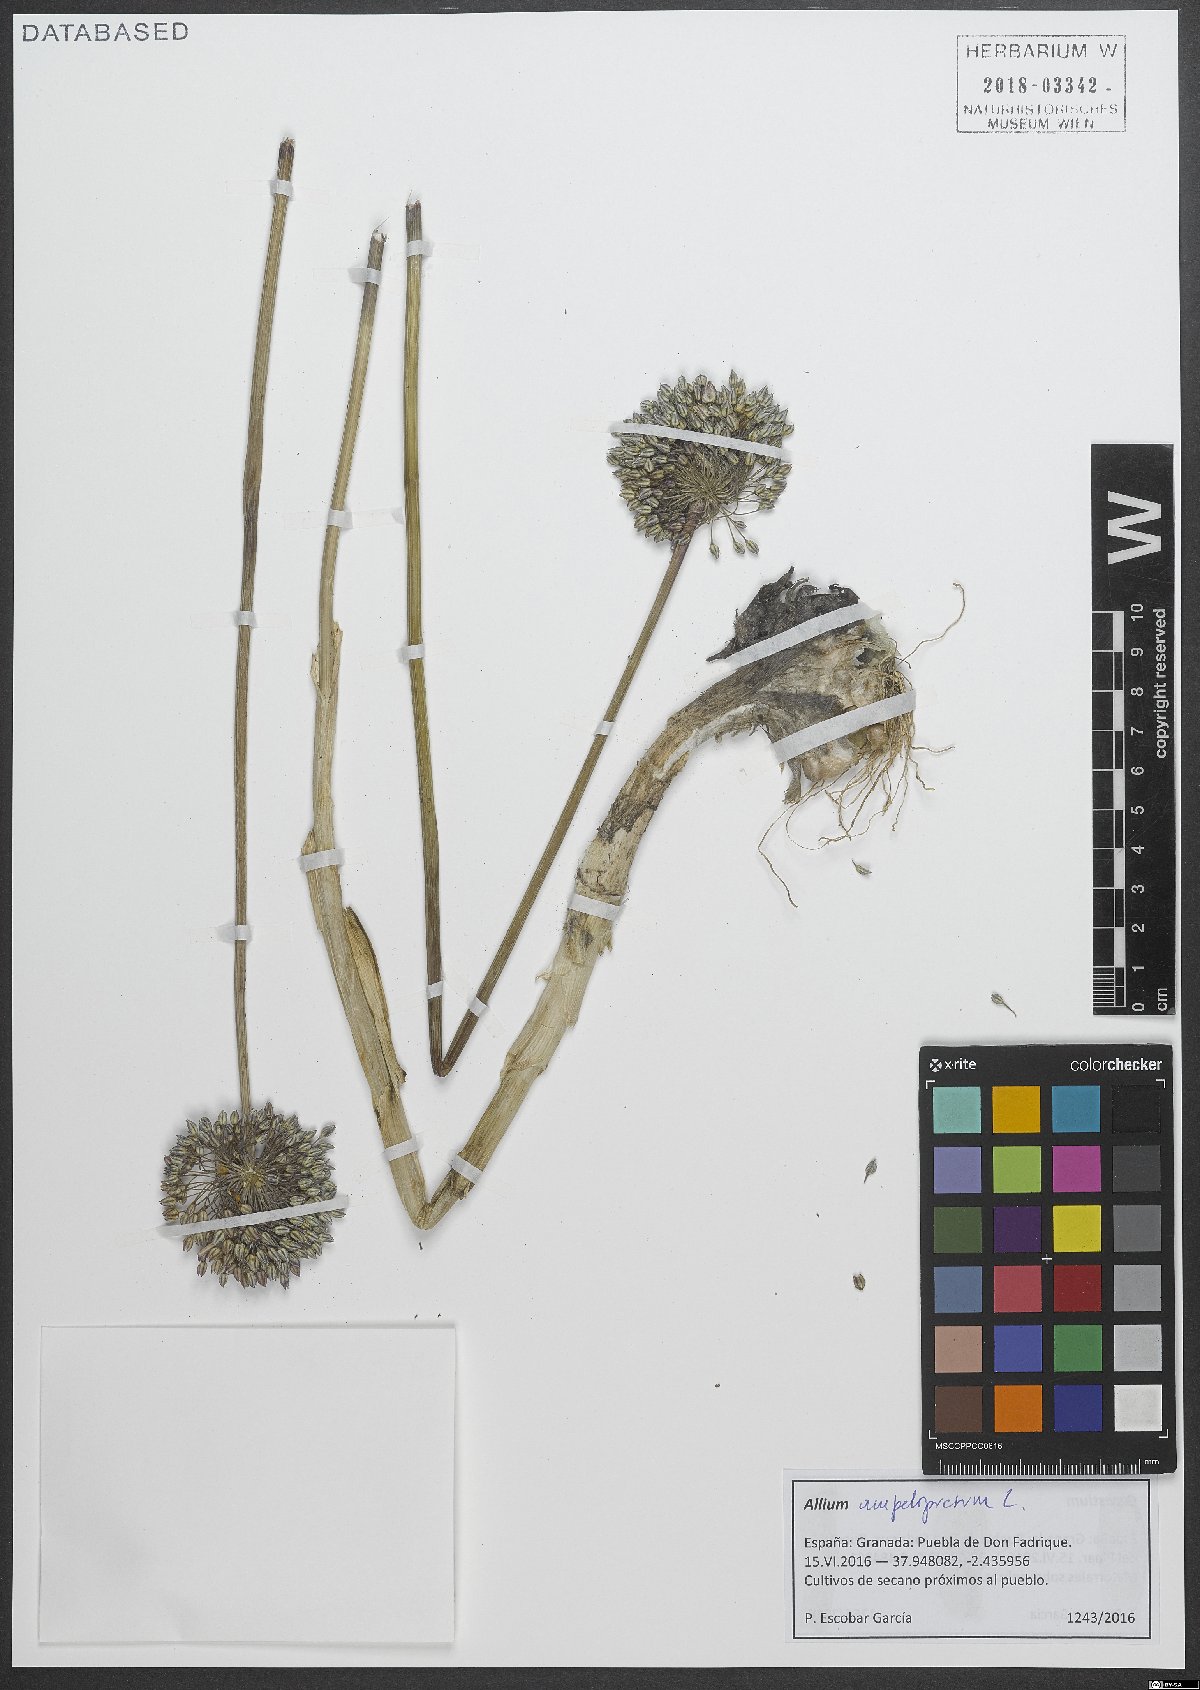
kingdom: Plantae
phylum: Tracheophyta
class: Liliopsida
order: Asparagales
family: Amaryllidaceae
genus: Allium
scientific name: Allium ampeloprasum
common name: Wild leek
